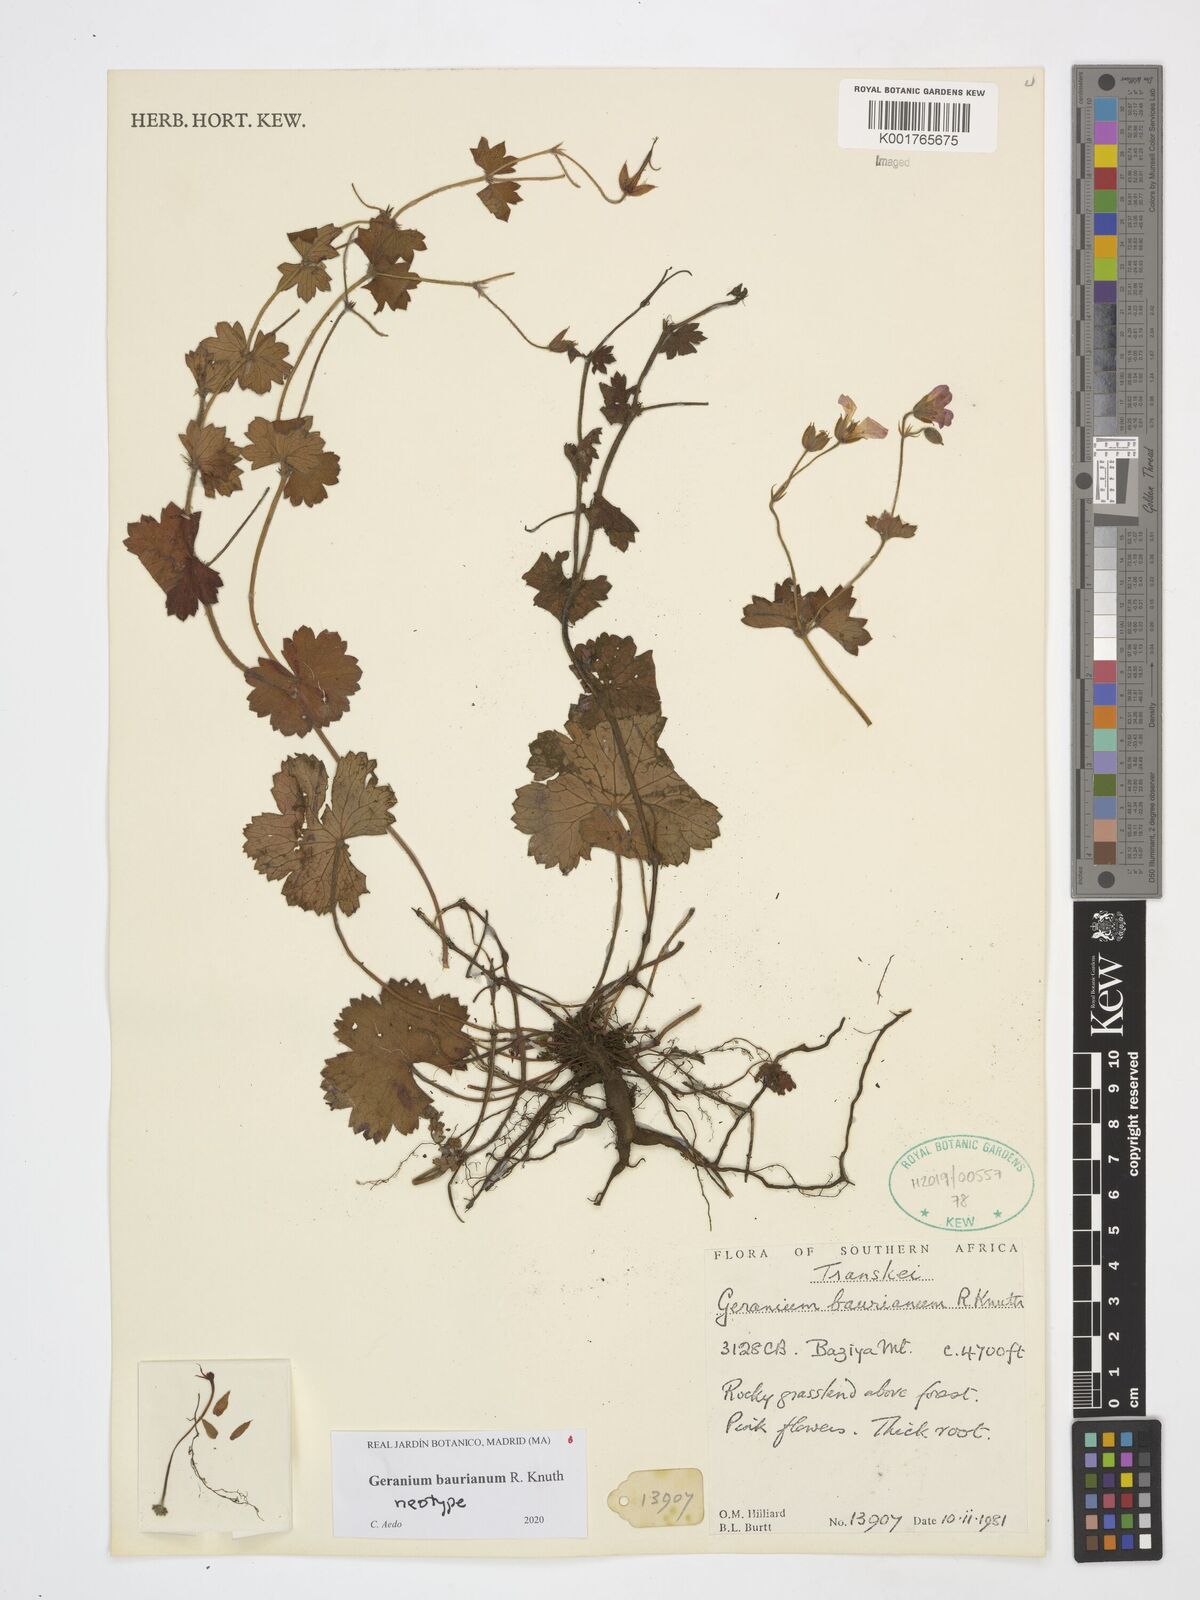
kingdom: Plantae
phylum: Tracheophyta
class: Magnoliopsida
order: Geraniales
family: Geraniaceae
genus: Geranium
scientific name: Geranium baurianum
